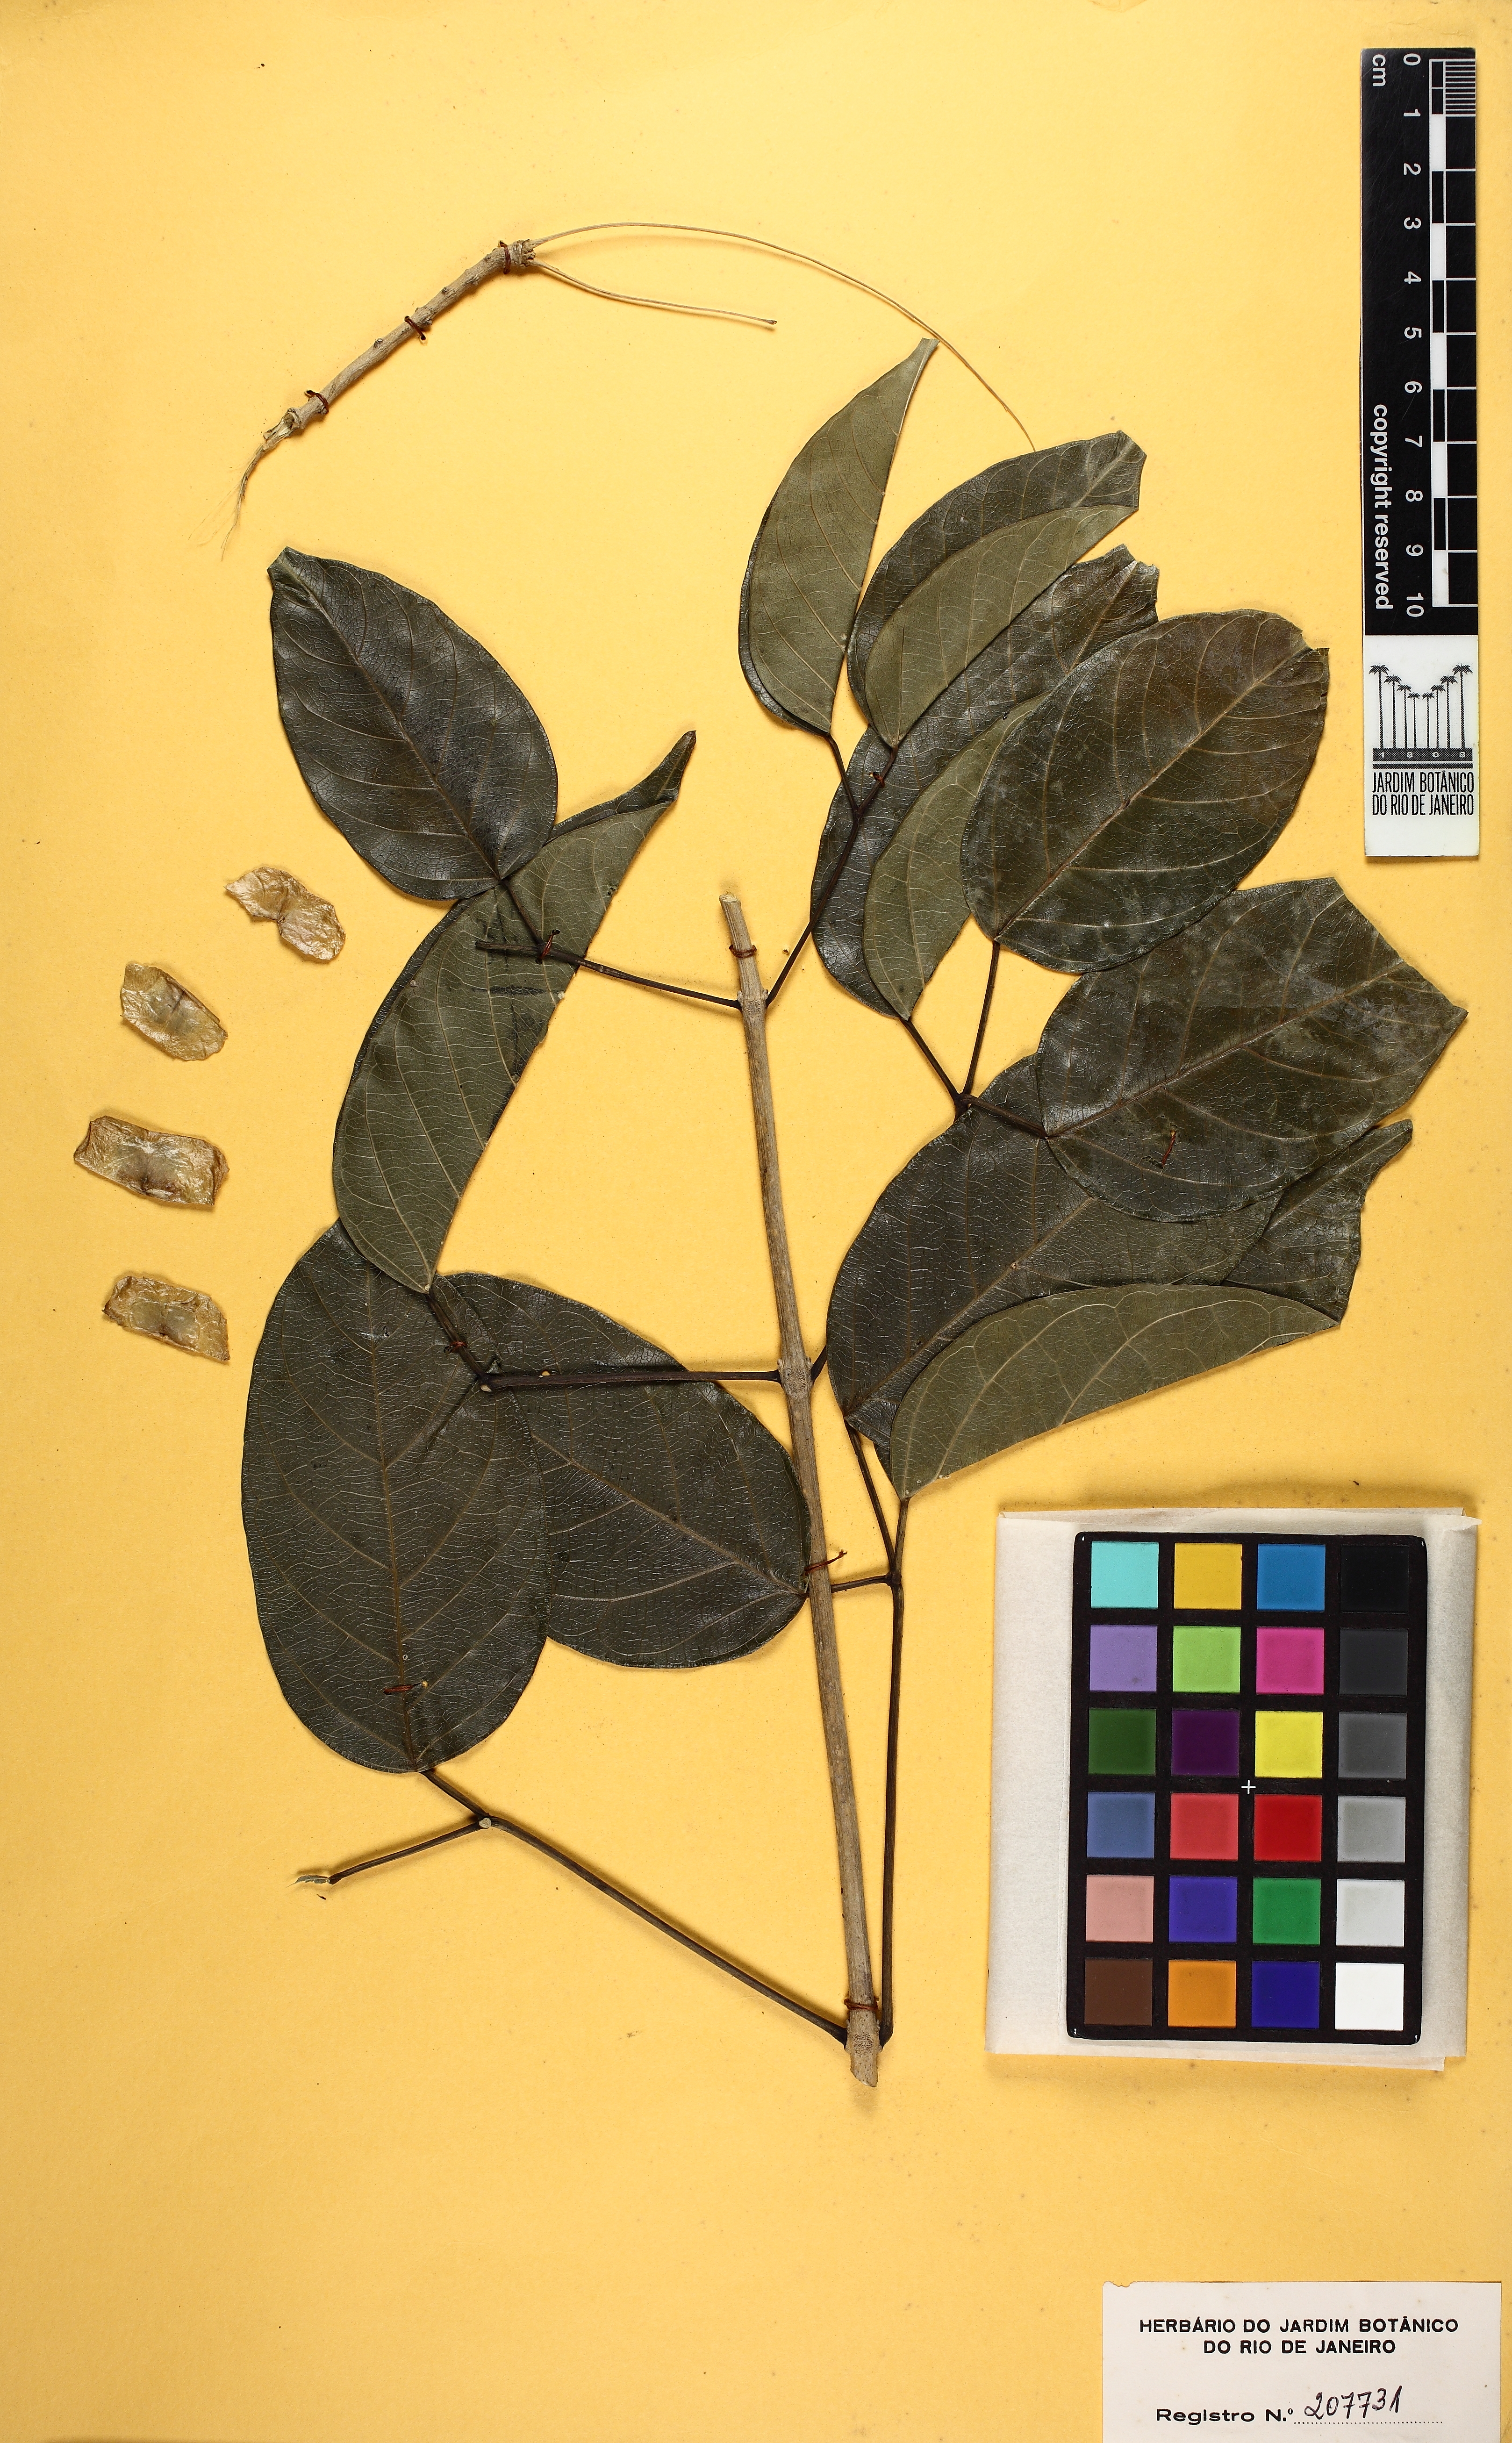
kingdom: Plantae
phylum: Tracheophyta
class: Magnoliopsida
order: Lamiales
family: Bignoniaceae
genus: Fridericia
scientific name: Fridericia spicata
